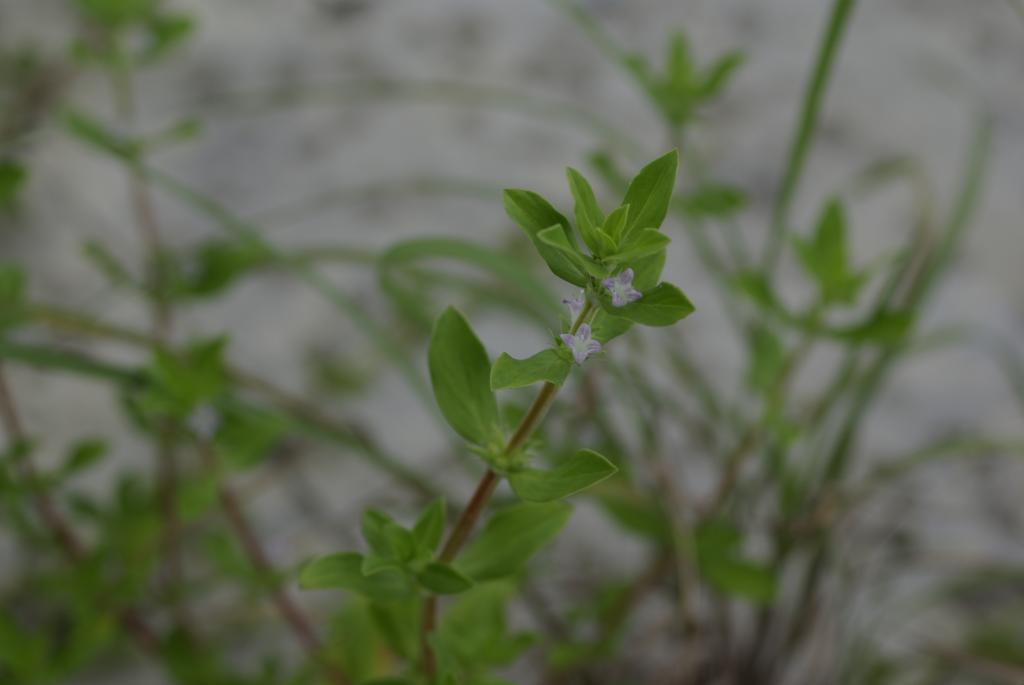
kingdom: Plantae
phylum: Tracheophyta
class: Magnoliopsida
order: Gentianales
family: Rubiaceae
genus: Spermacoce
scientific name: Spermacoce remota
